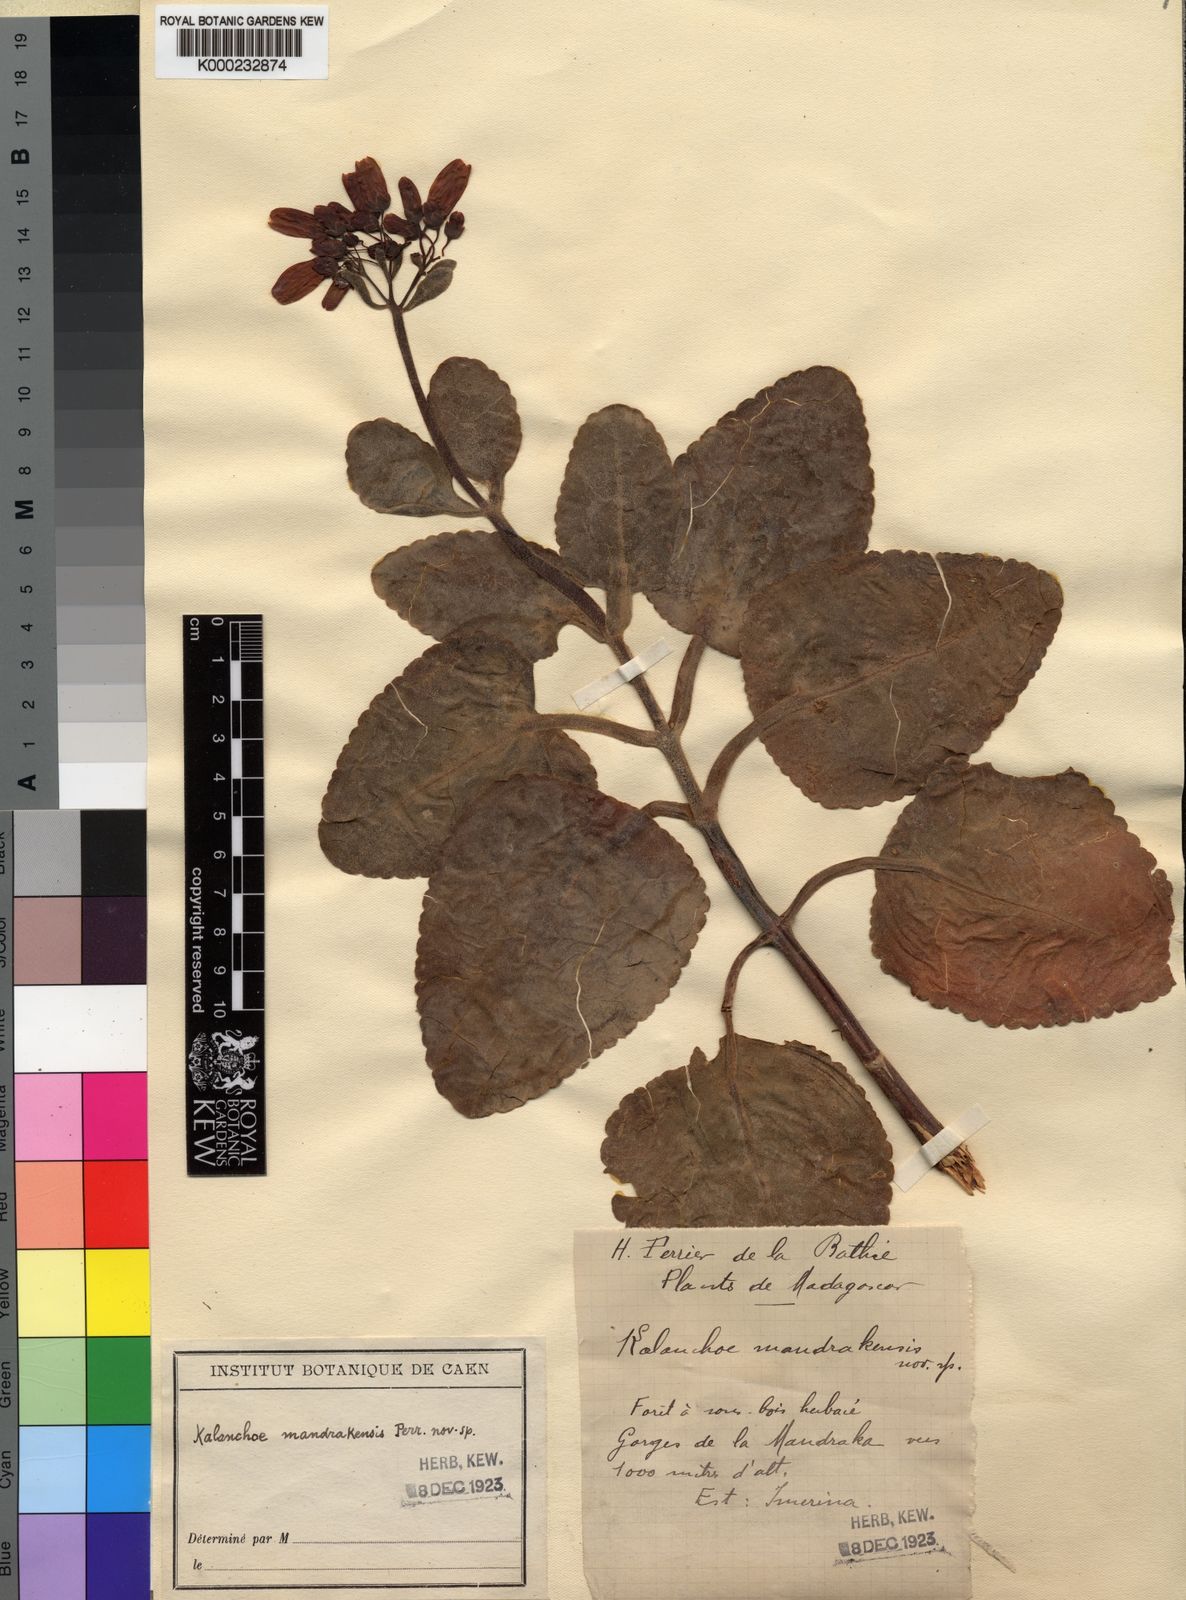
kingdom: Plantae
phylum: Tracheophyta
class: Magnoliopsida
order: Saxifragales
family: Crassulaceae
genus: Kalanchoe
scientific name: Kalanchoe peltata
